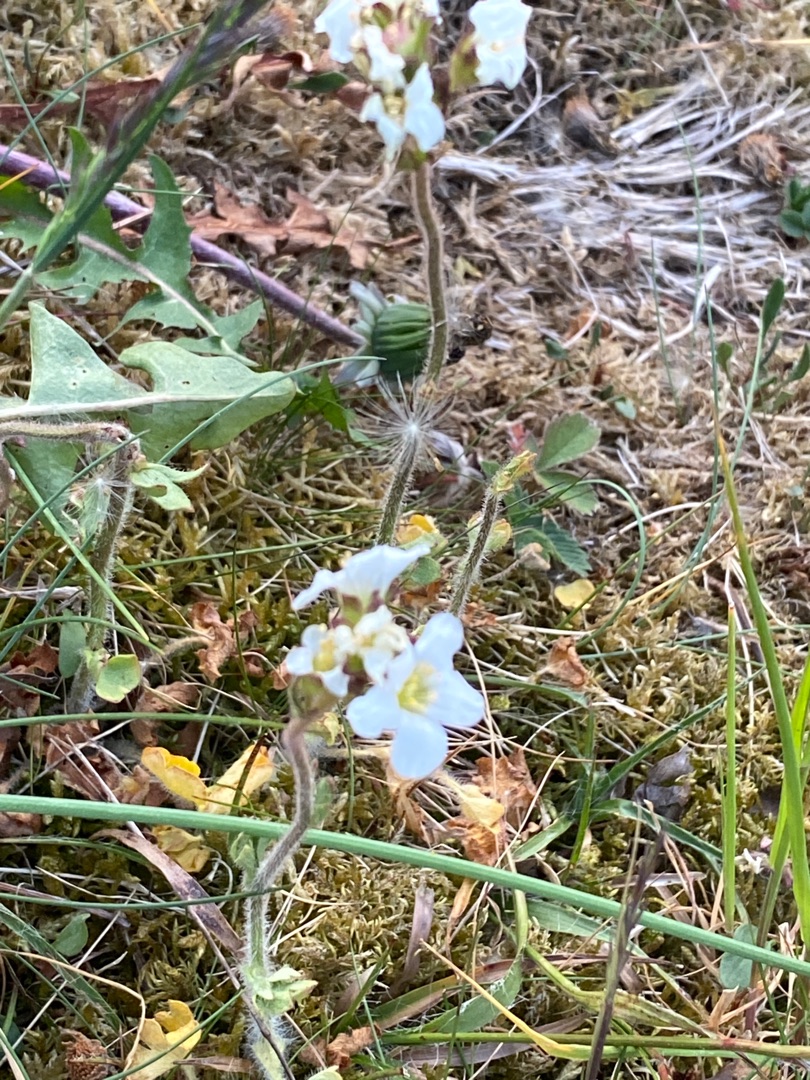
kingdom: Plantae
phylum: Tracheophyta
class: Magnoliopsida
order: Saxifragales
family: Saxifragaceae
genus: Saxifraga
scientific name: Saxifraga granulata
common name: Kornet stenbræk
